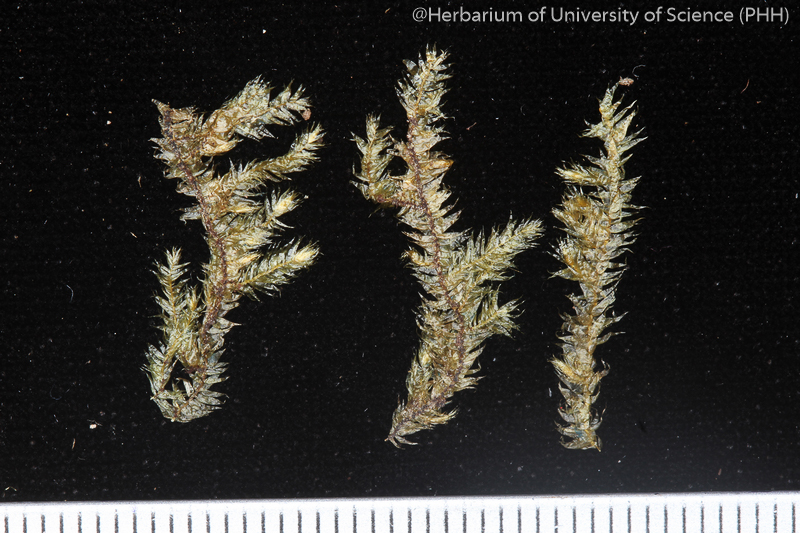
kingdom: Plantae
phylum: Bryophyta
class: Bryopsida
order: Hypnales
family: Plagiotheciaceae
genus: Pseudotaxiphyllum
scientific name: Pseudotaxiphyllum pohliicarpum
